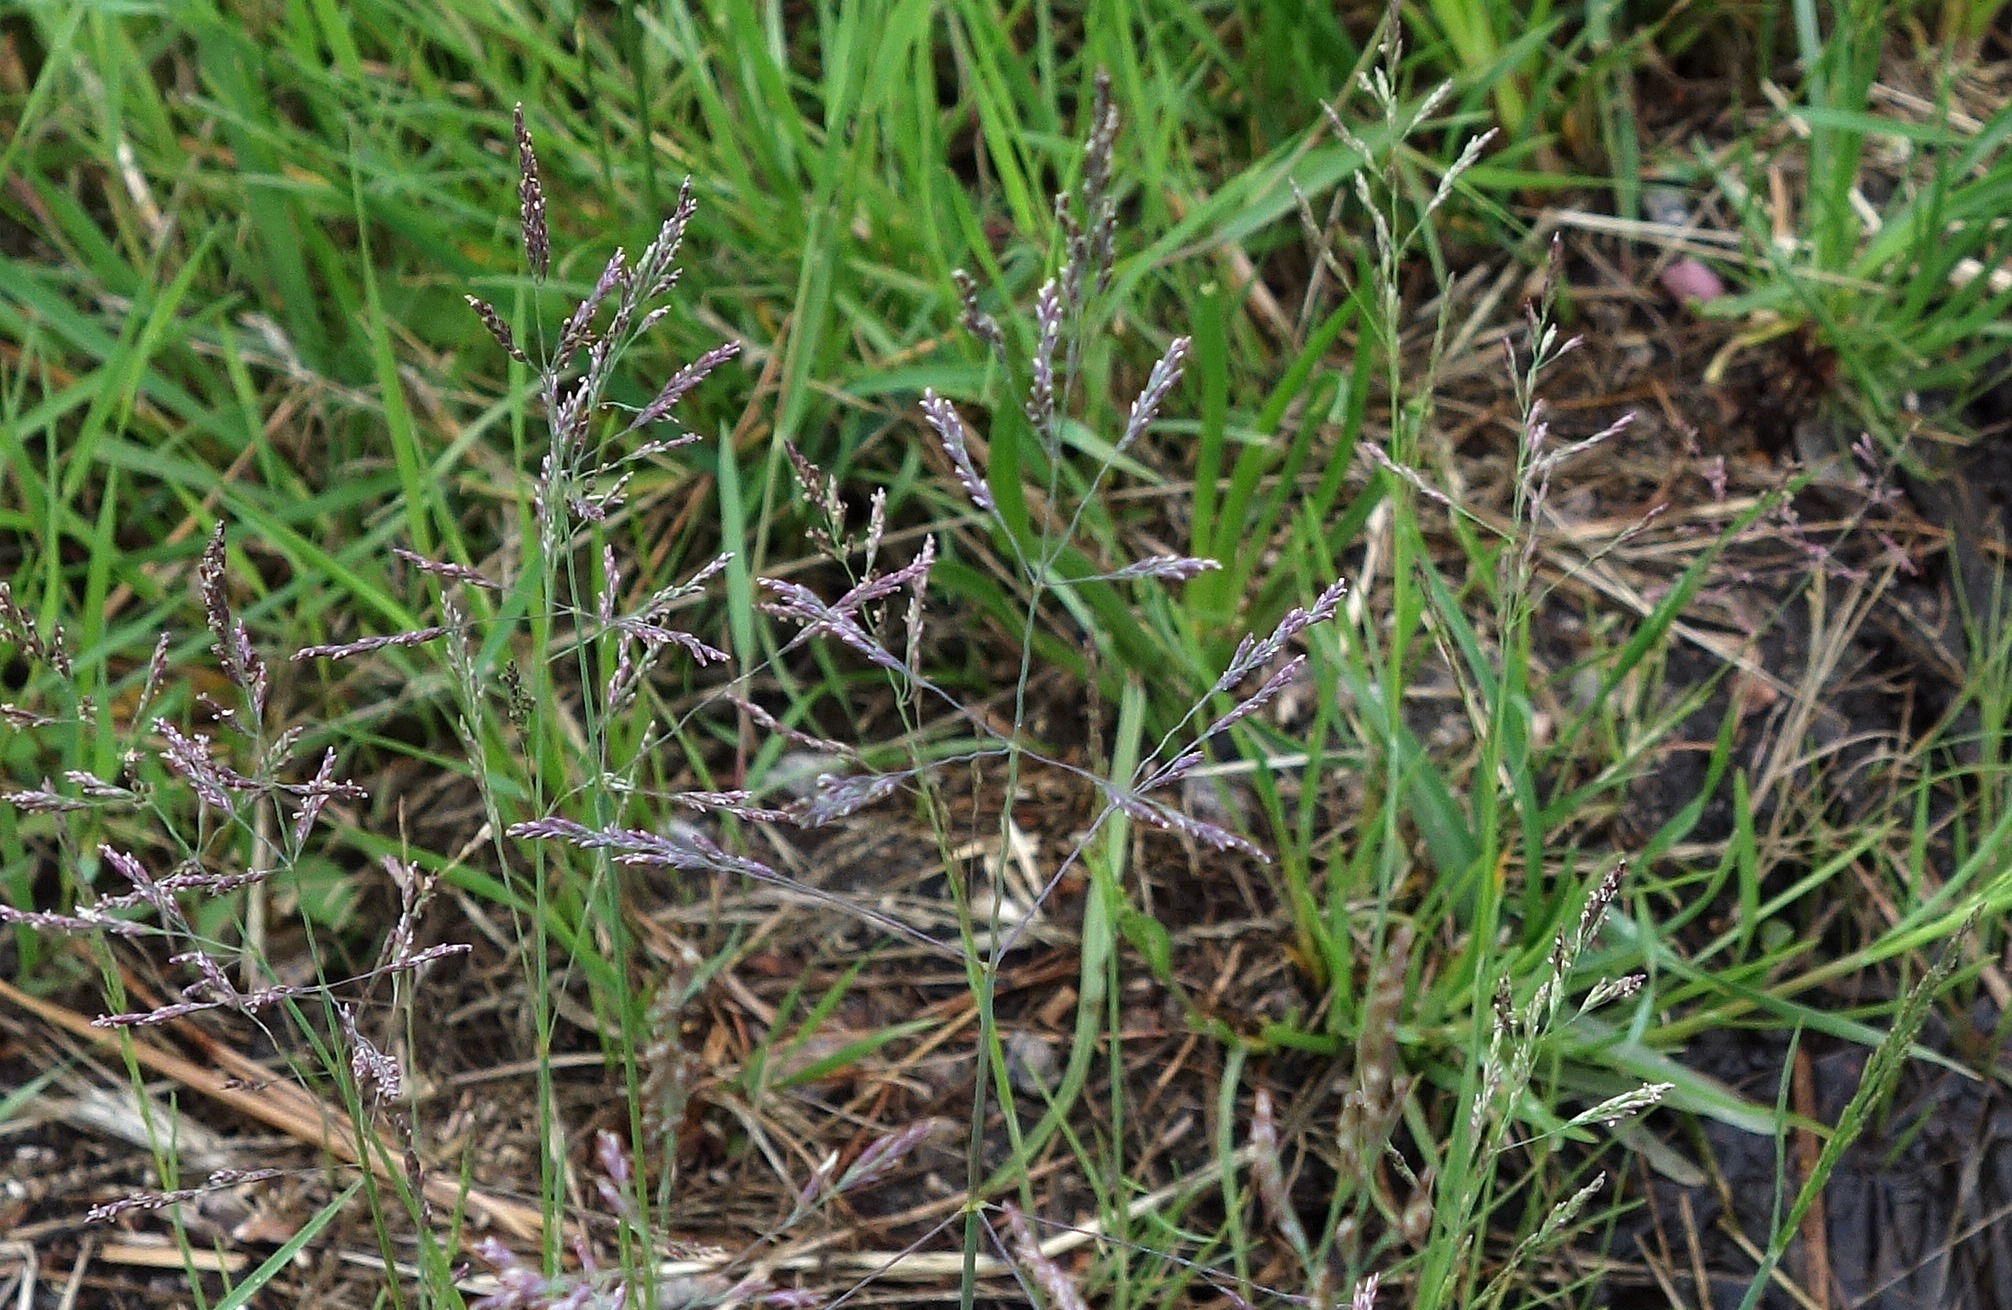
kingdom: Plantae
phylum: Tracheophyta
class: Liliopsida
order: Poales
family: Poaceae
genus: Puccinellia
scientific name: Puccinellia distans
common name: Udspærret annelgræs
